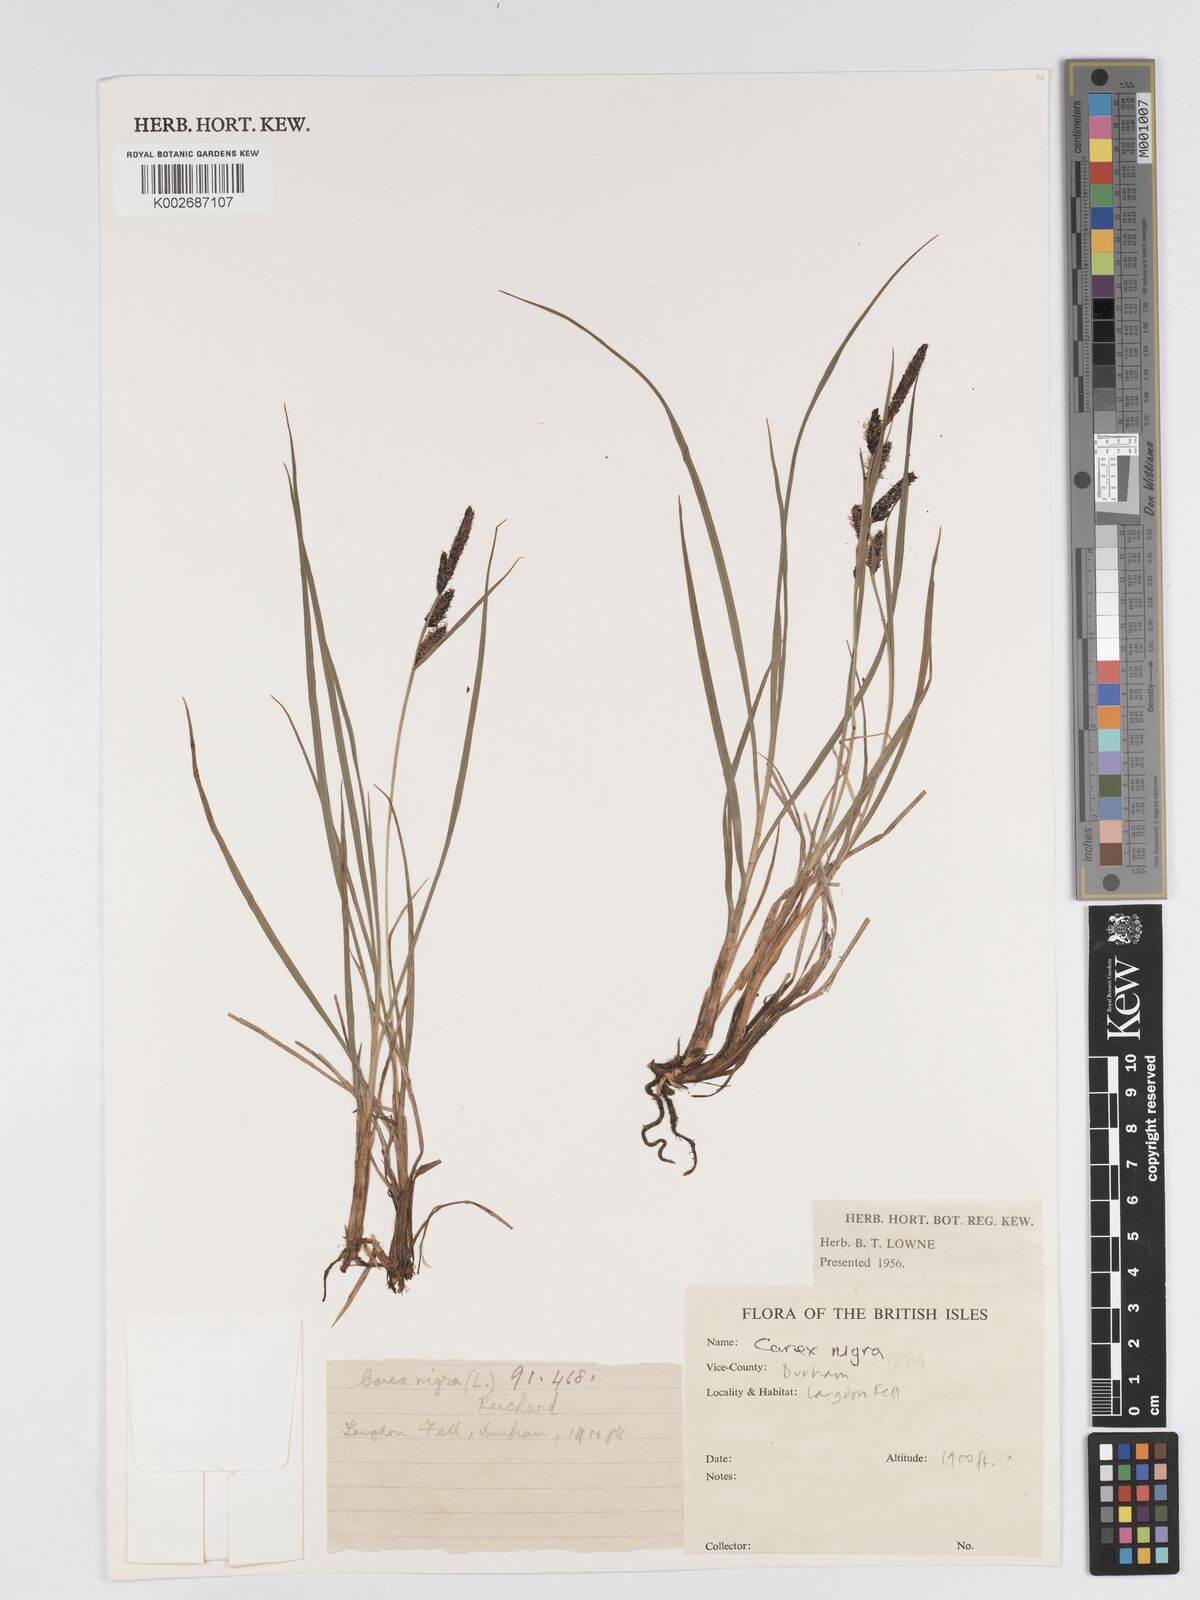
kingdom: Plantae
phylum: Tracheophyta
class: Liliopsida
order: Poales
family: Cyperaceae
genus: Carex
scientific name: Carex nigra
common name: Common sedge
